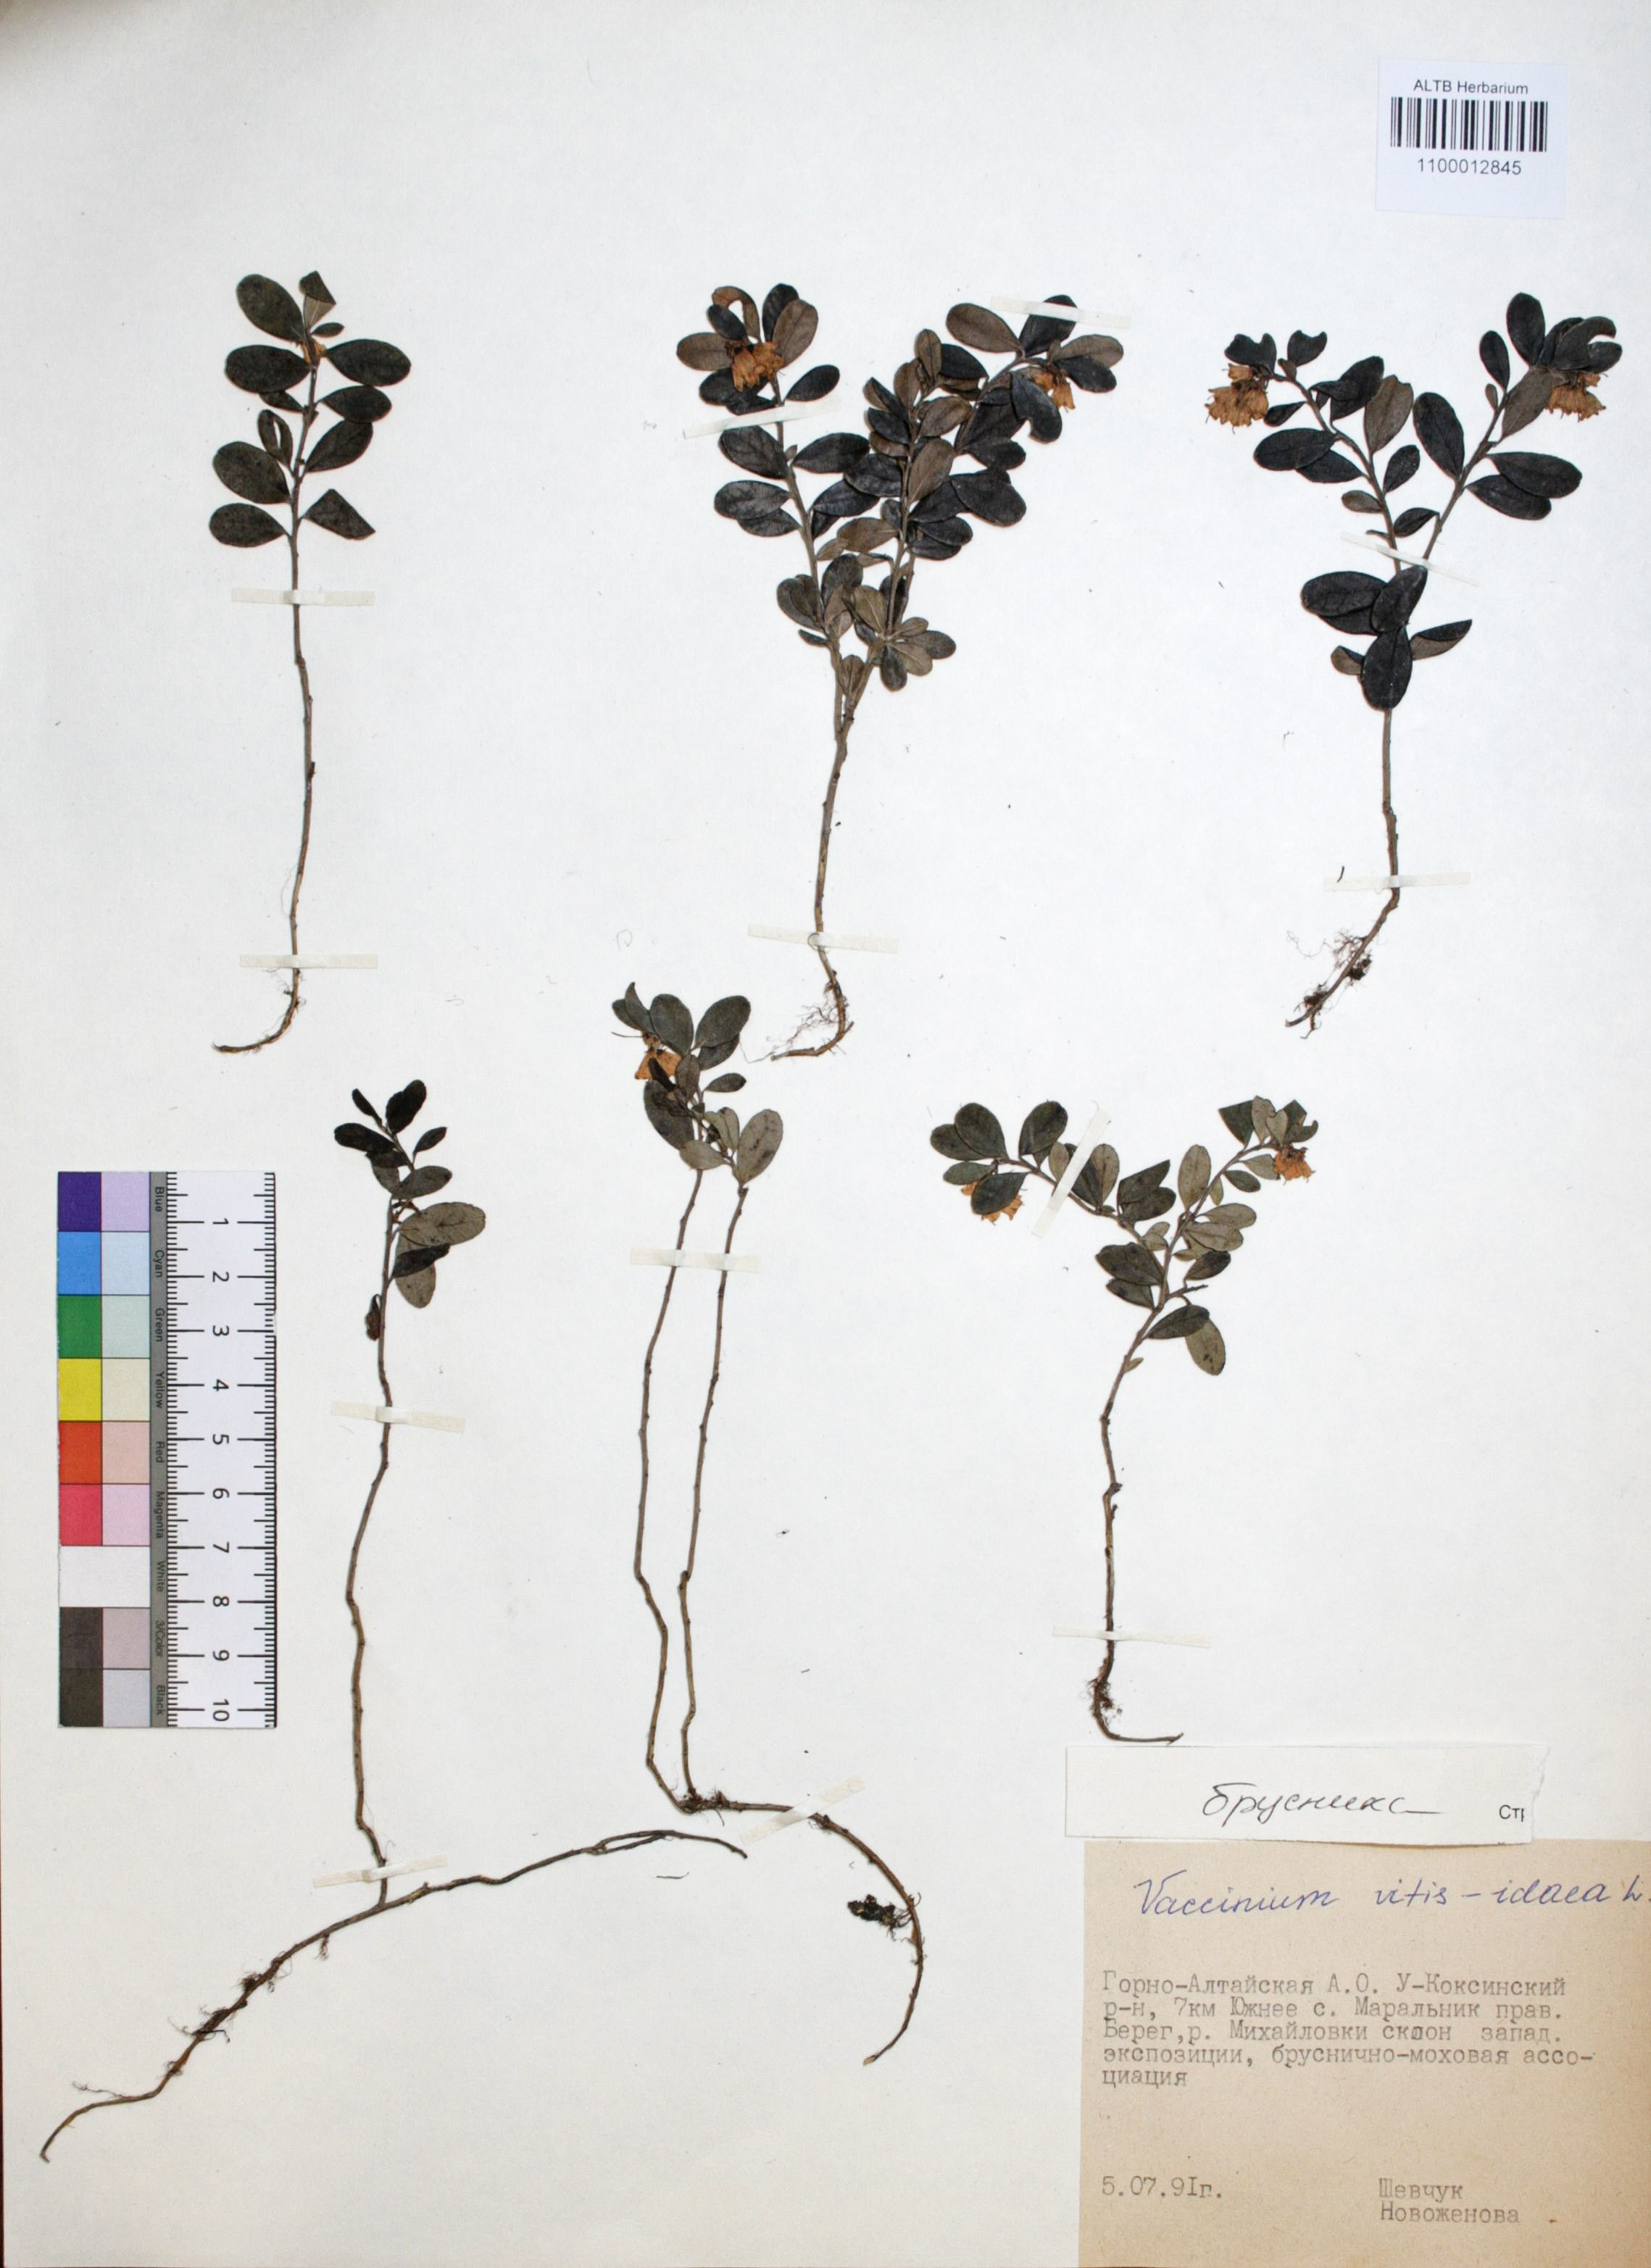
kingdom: Plantae
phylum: Tracheophyta
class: Magnoliopsida
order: Ericales
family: Ericaceae
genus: Vaccinium
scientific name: Vaccinium vitis-idaea
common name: Cowberry
